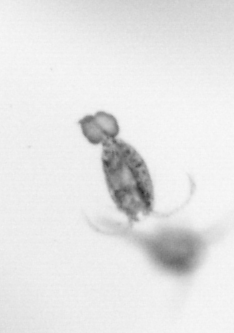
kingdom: Animalia
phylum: Arthropoda
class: Copepoda
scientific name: Copepoda
